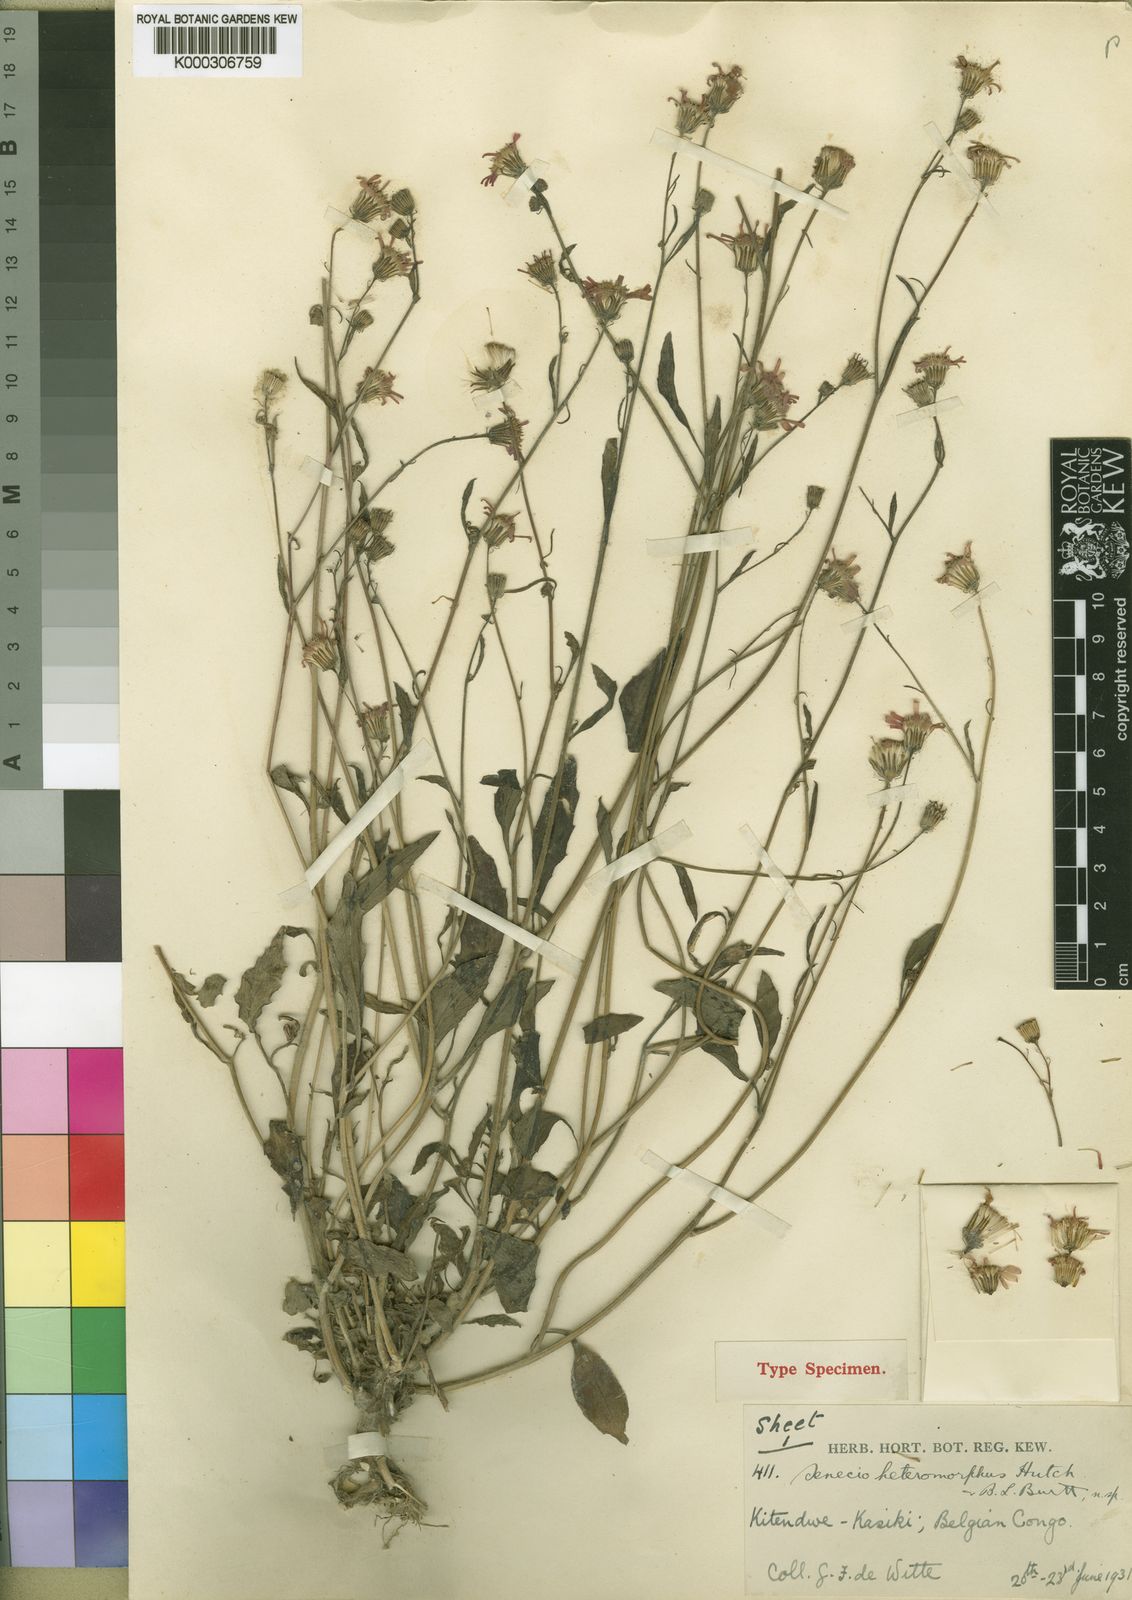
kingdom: Plantae
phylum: Tracheophyta
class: Magnoliopsida
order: Asterales
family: Asteraceae
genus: Crassocephalum
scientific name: Crassocephalum radiatum
